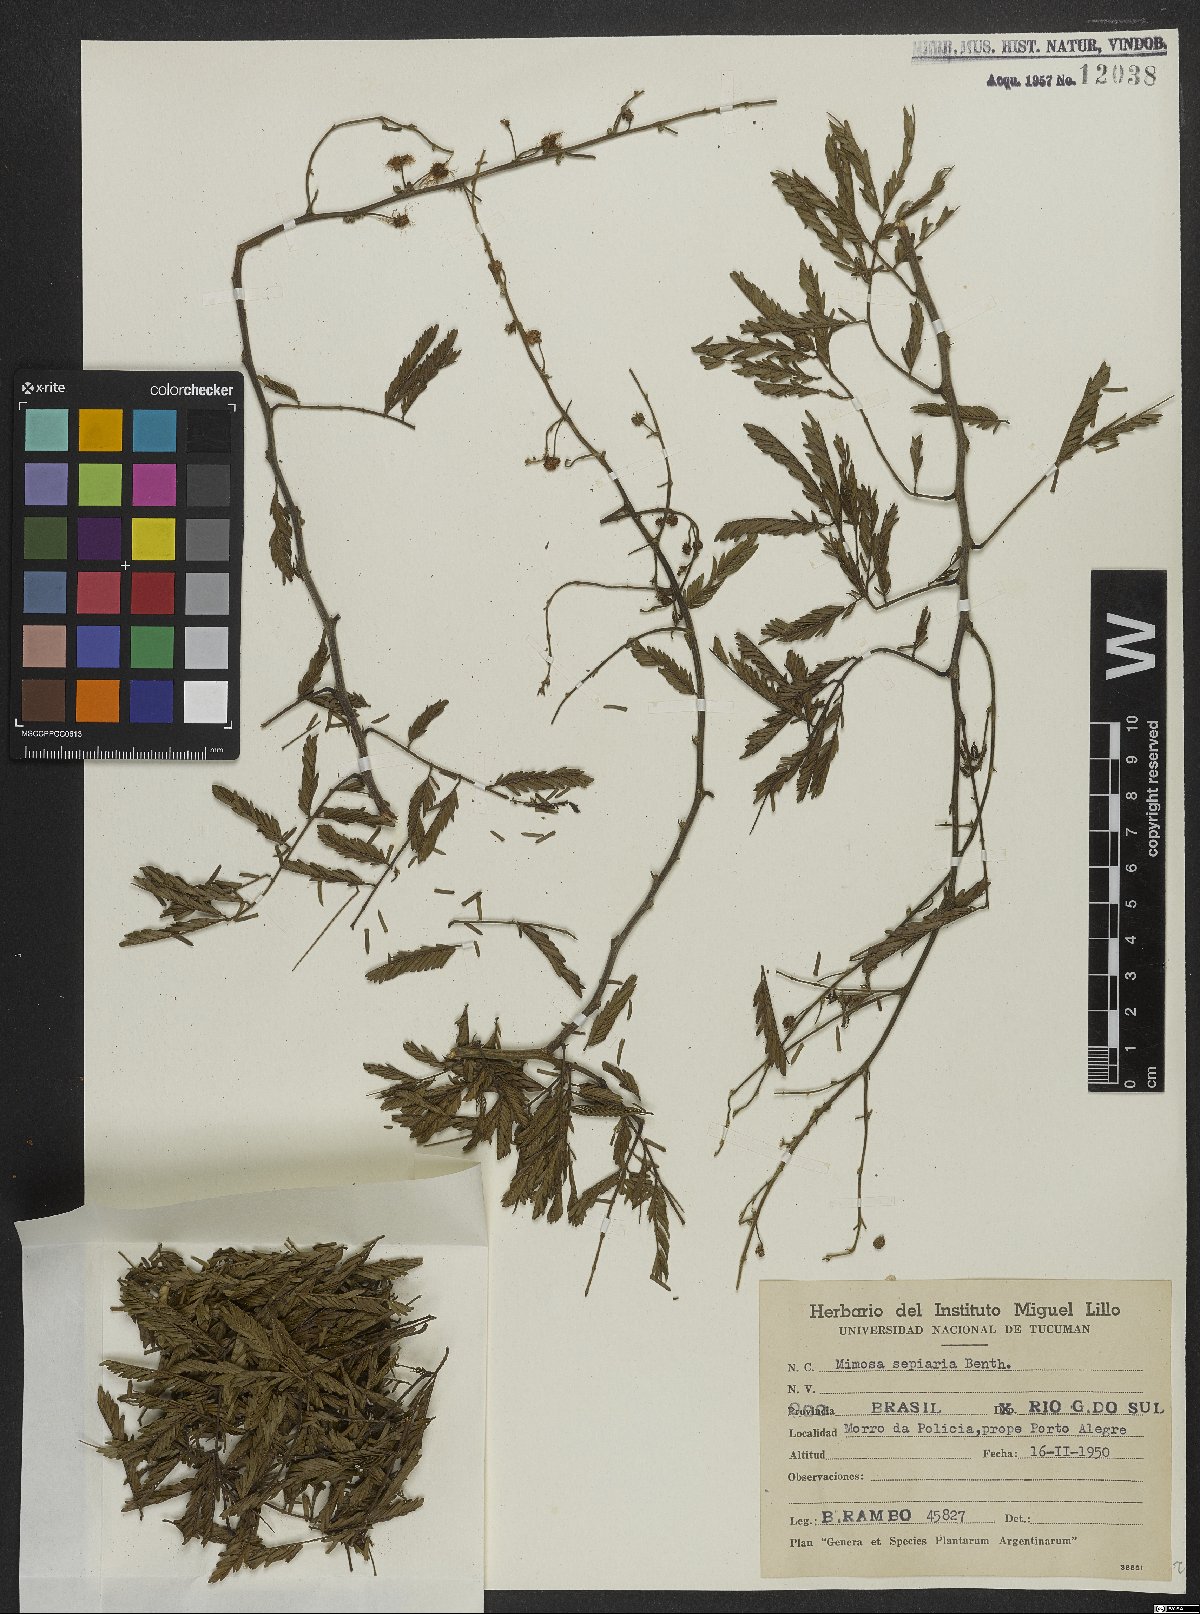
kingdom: Plantae
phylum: Tracheophyta
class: Magnoliopsida
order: Fabales
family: Fabaceae
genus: Mimosa
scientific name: Mimosa bimucronata
